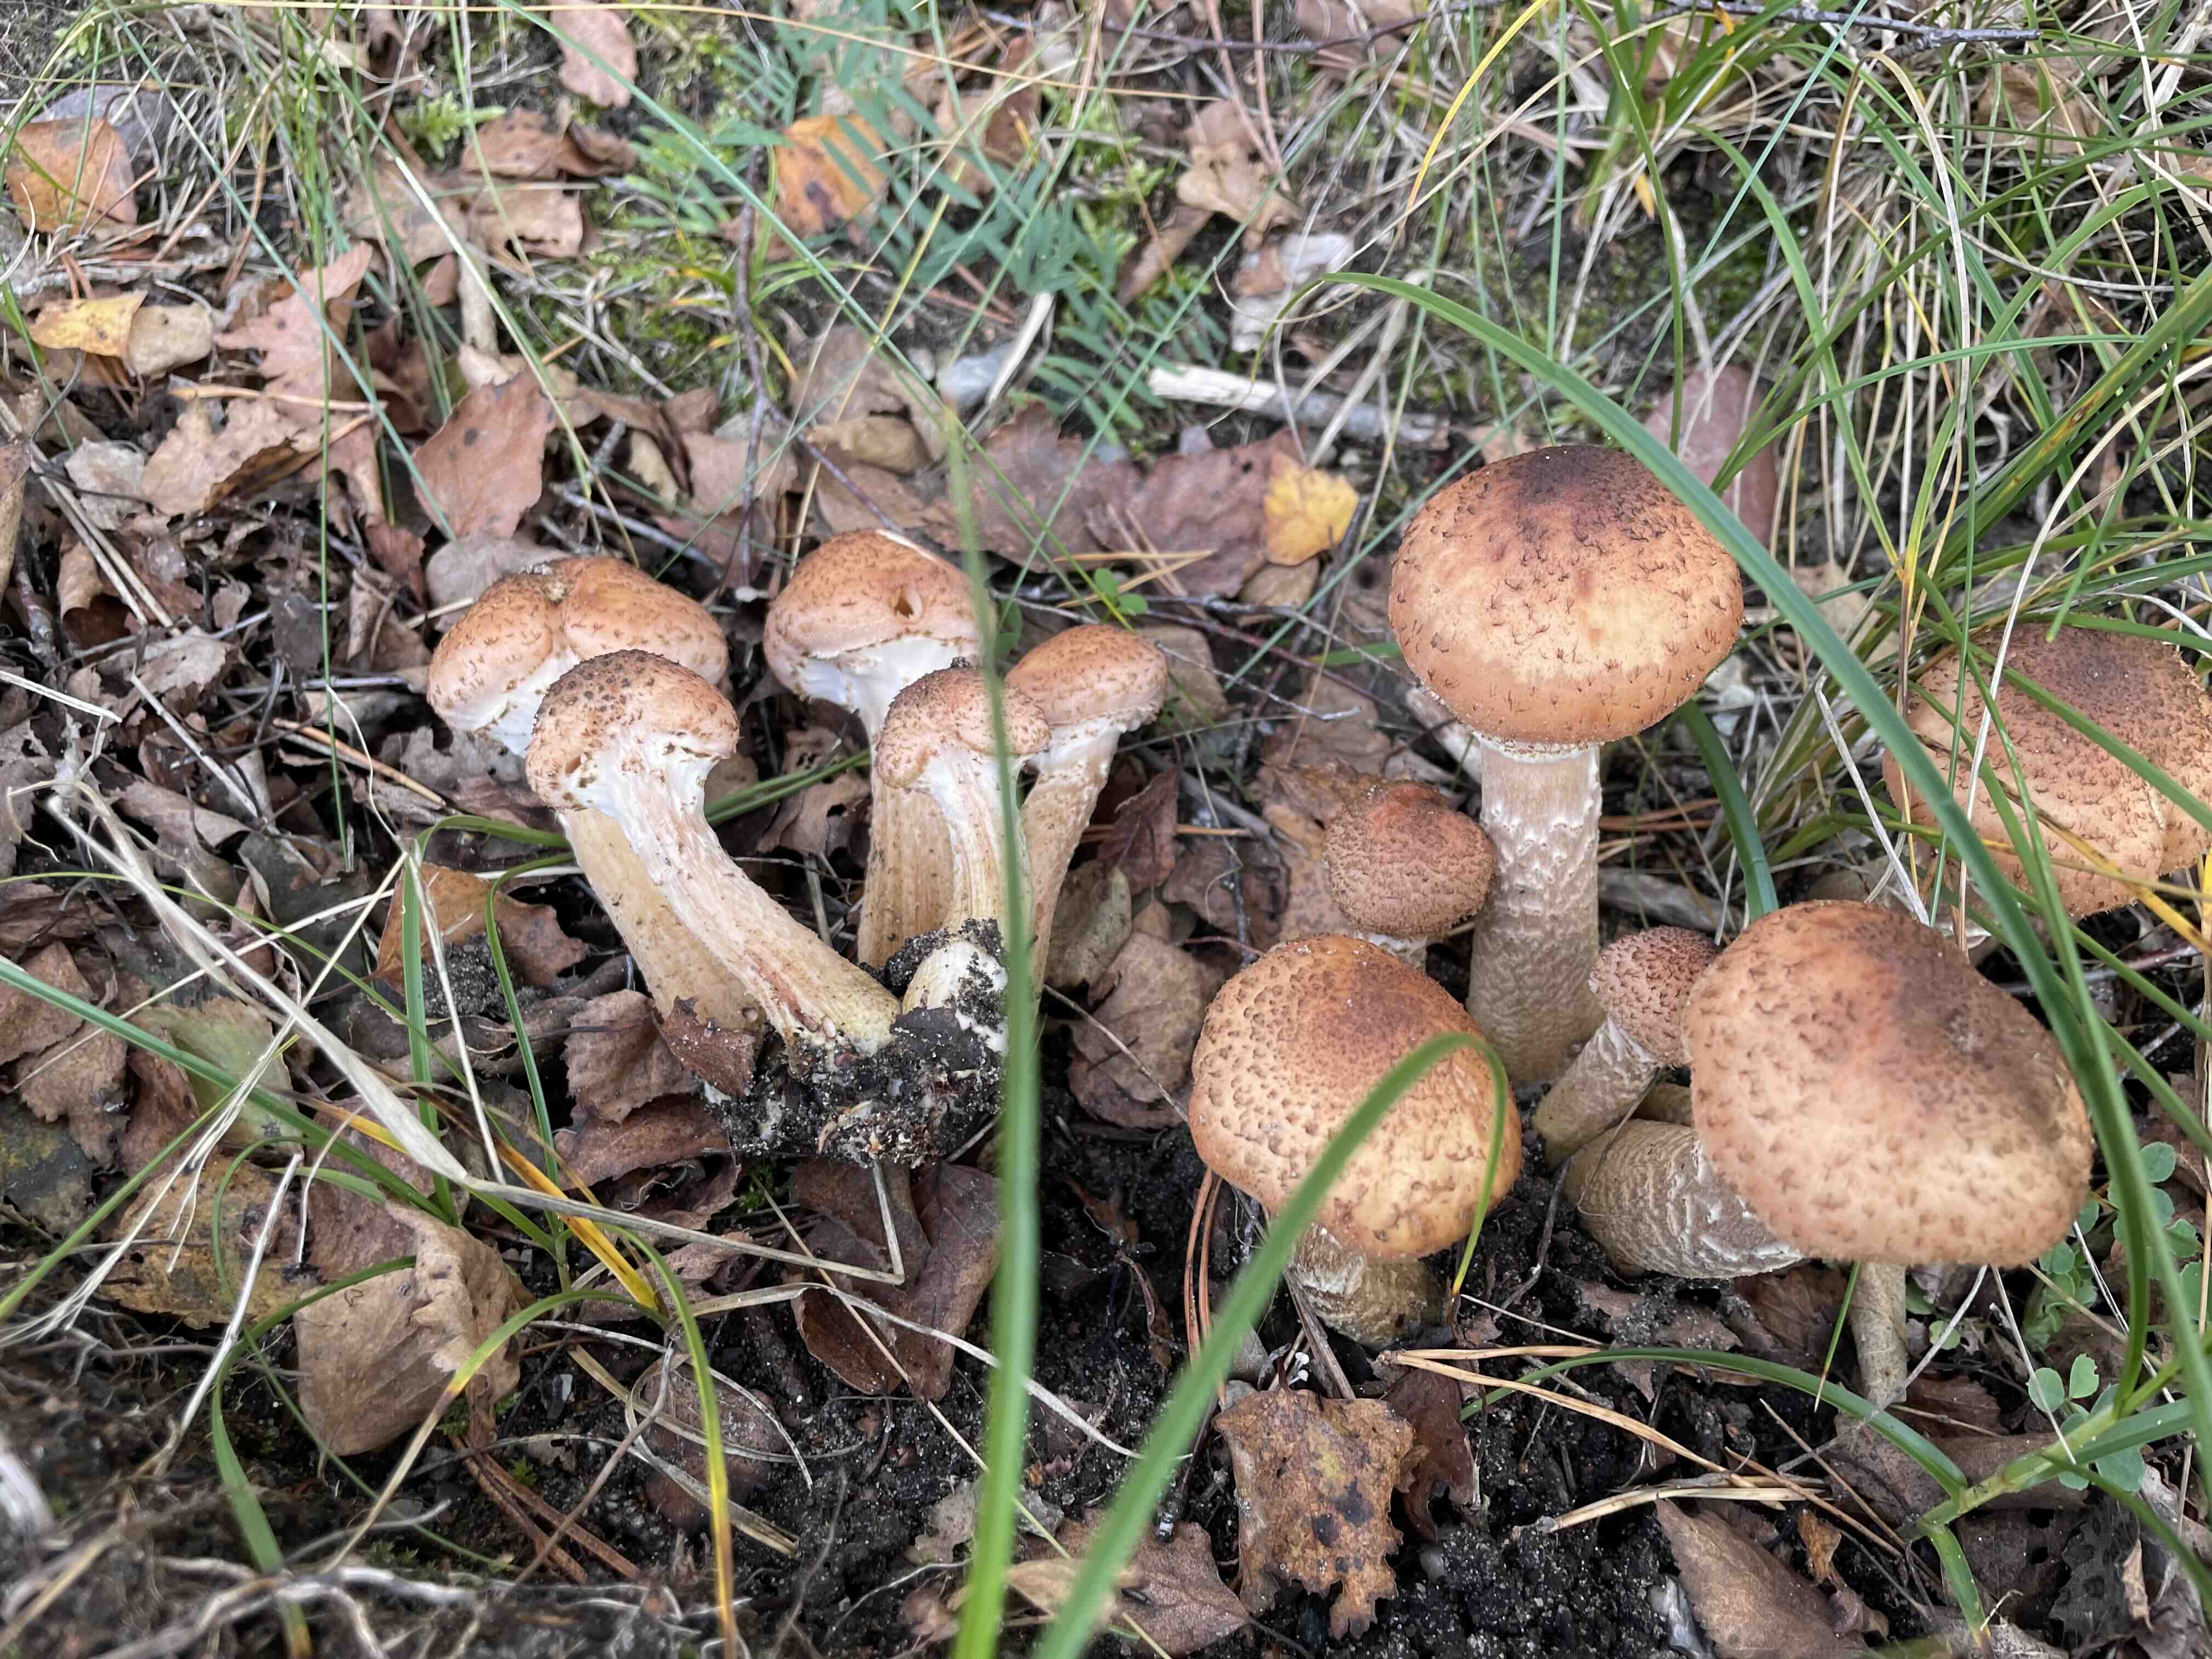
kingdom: Fungi
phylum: Basidiomycota
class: Agaricomycetes
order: Agaricales
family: Physalacriaceae
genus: Armillaria
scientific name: Armillaria ostoyae
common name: mørk honningsvamp
